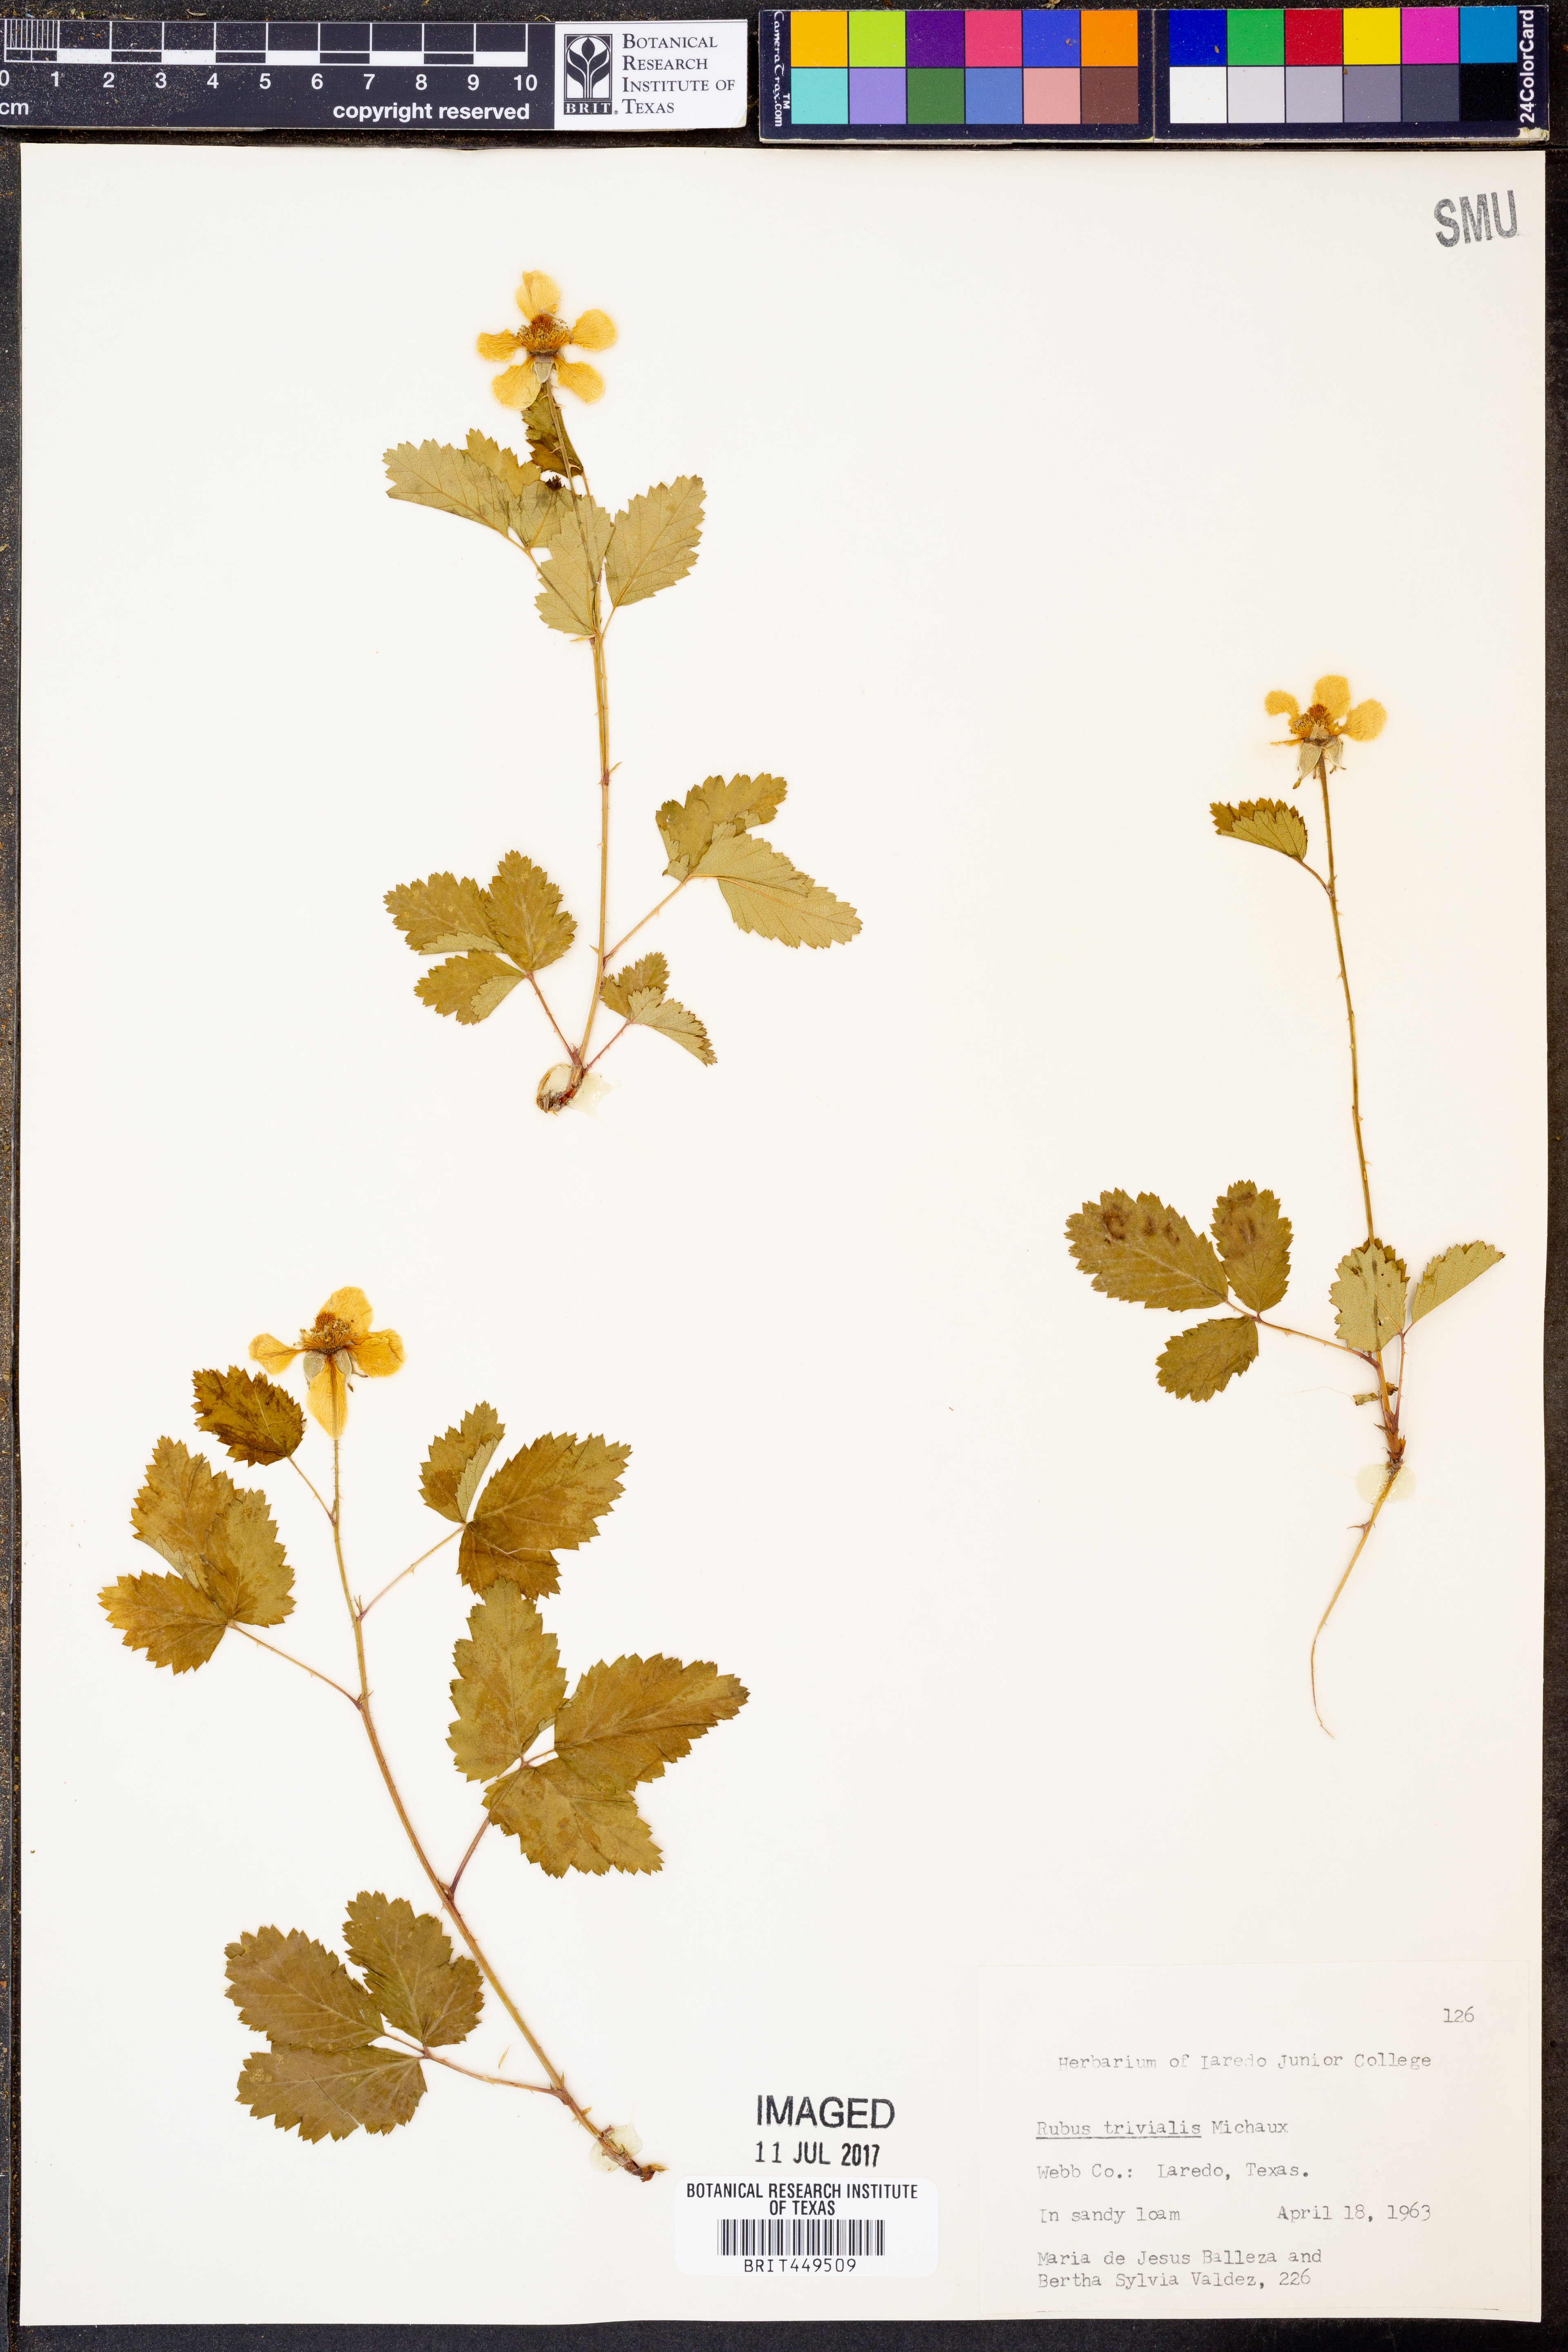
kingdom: Plantae
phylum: Tracheophyta
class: Magnoliopsida
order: Rosales
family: Rosaceae
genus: Rubus
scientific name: Rubus trivialis
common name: Southern dewberry
